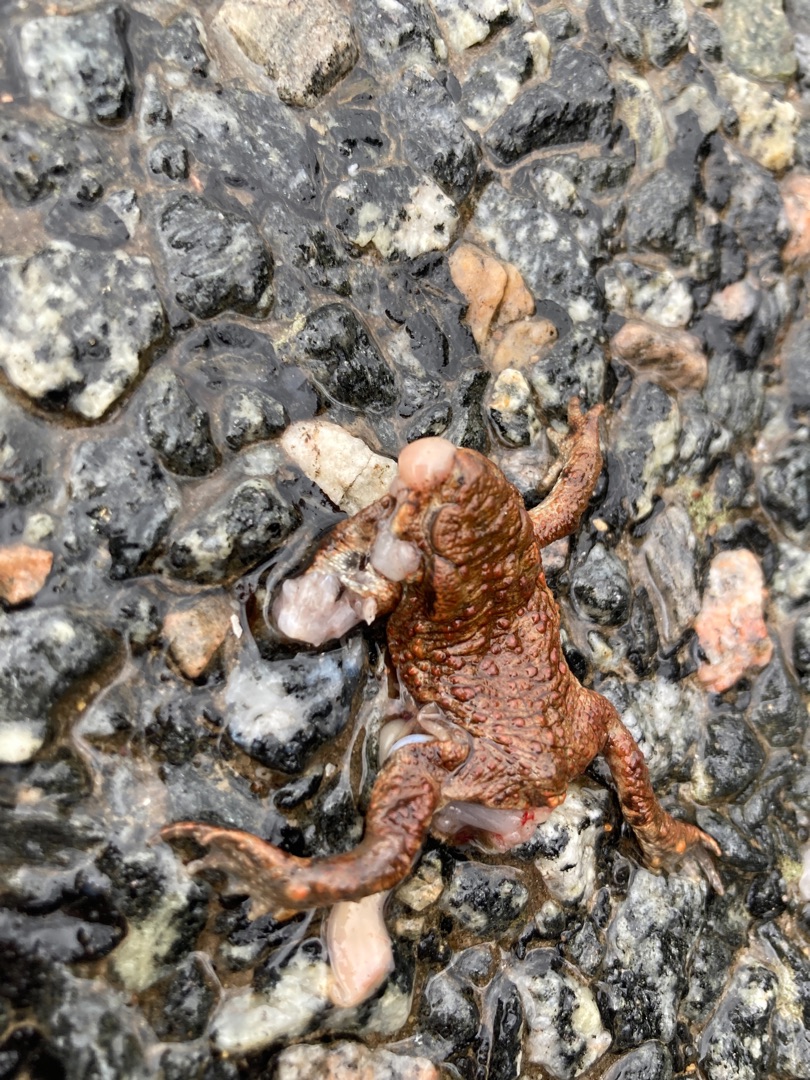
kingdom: Animalia
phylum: Chordata
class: Amphibia
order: Anura
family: Bufonidae
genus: Bufo
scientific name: Bufo bufo
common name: Skrubtudse
